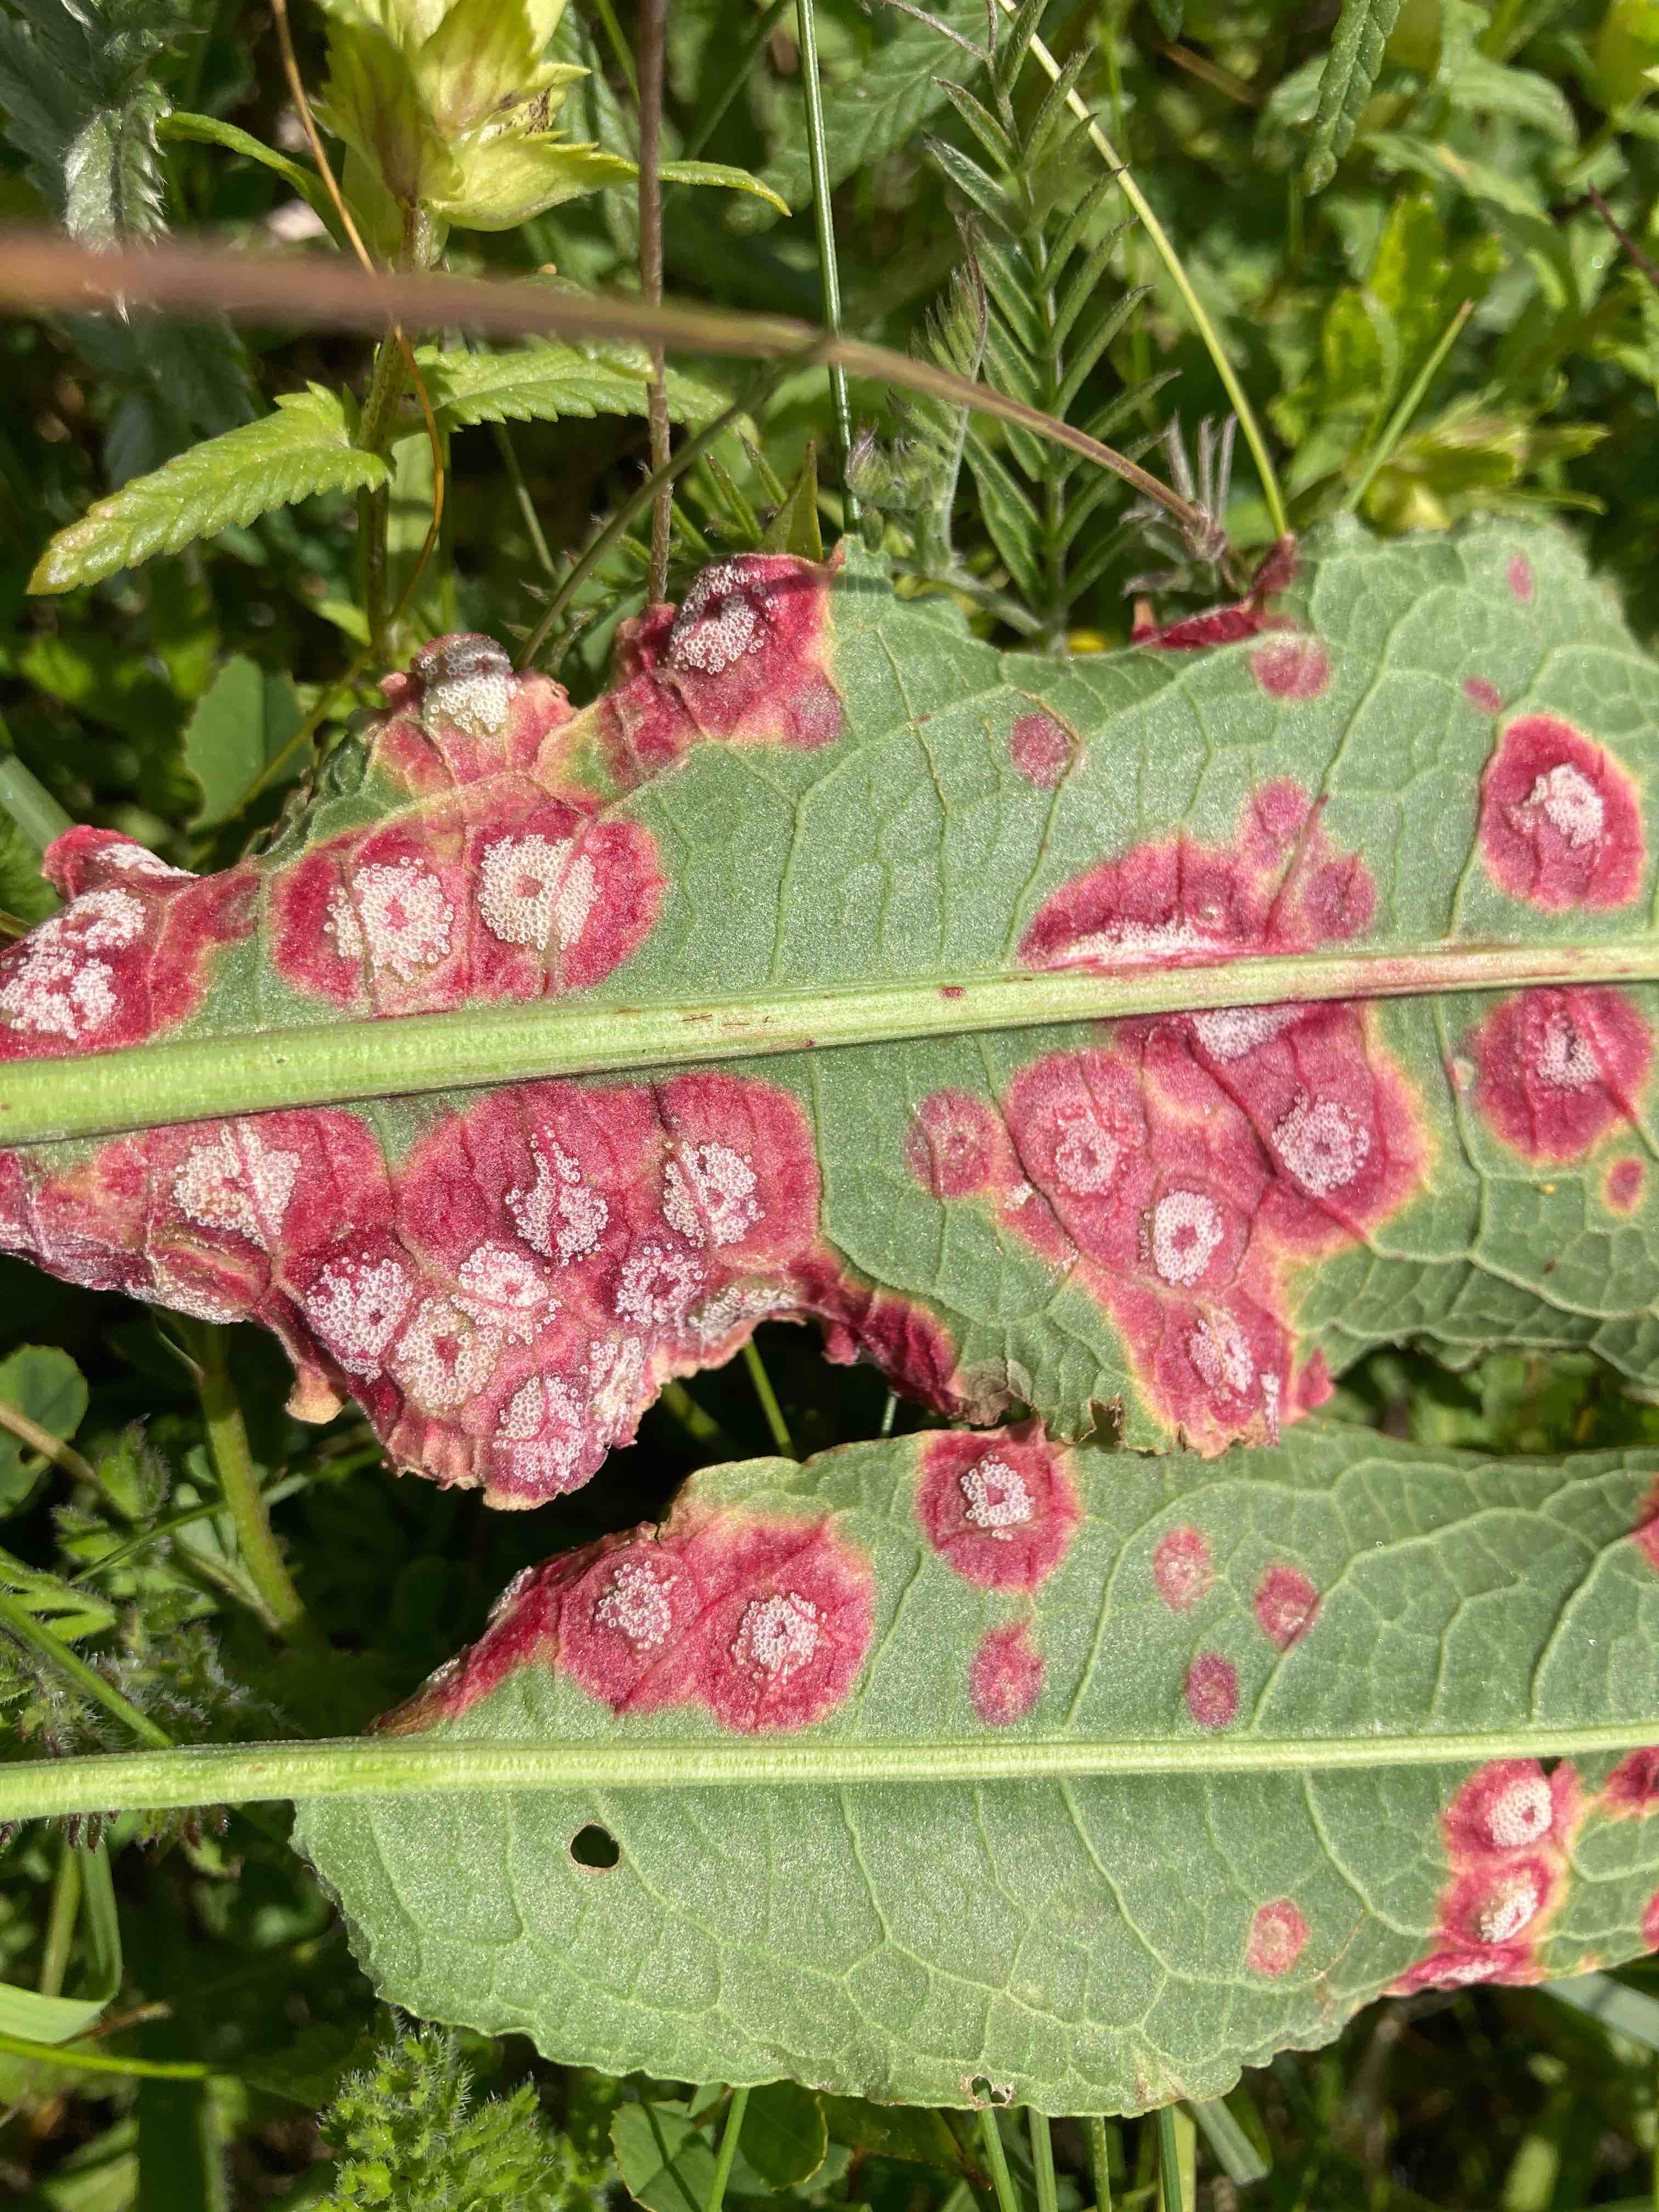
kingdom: Fungi
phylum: Basidiomycota
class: Pucciniomycetes
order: Pucciniales
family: Pucciniaceae
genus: Puccinia
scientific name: Puccinia phragmitis
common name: tagrør-tvecellerust
